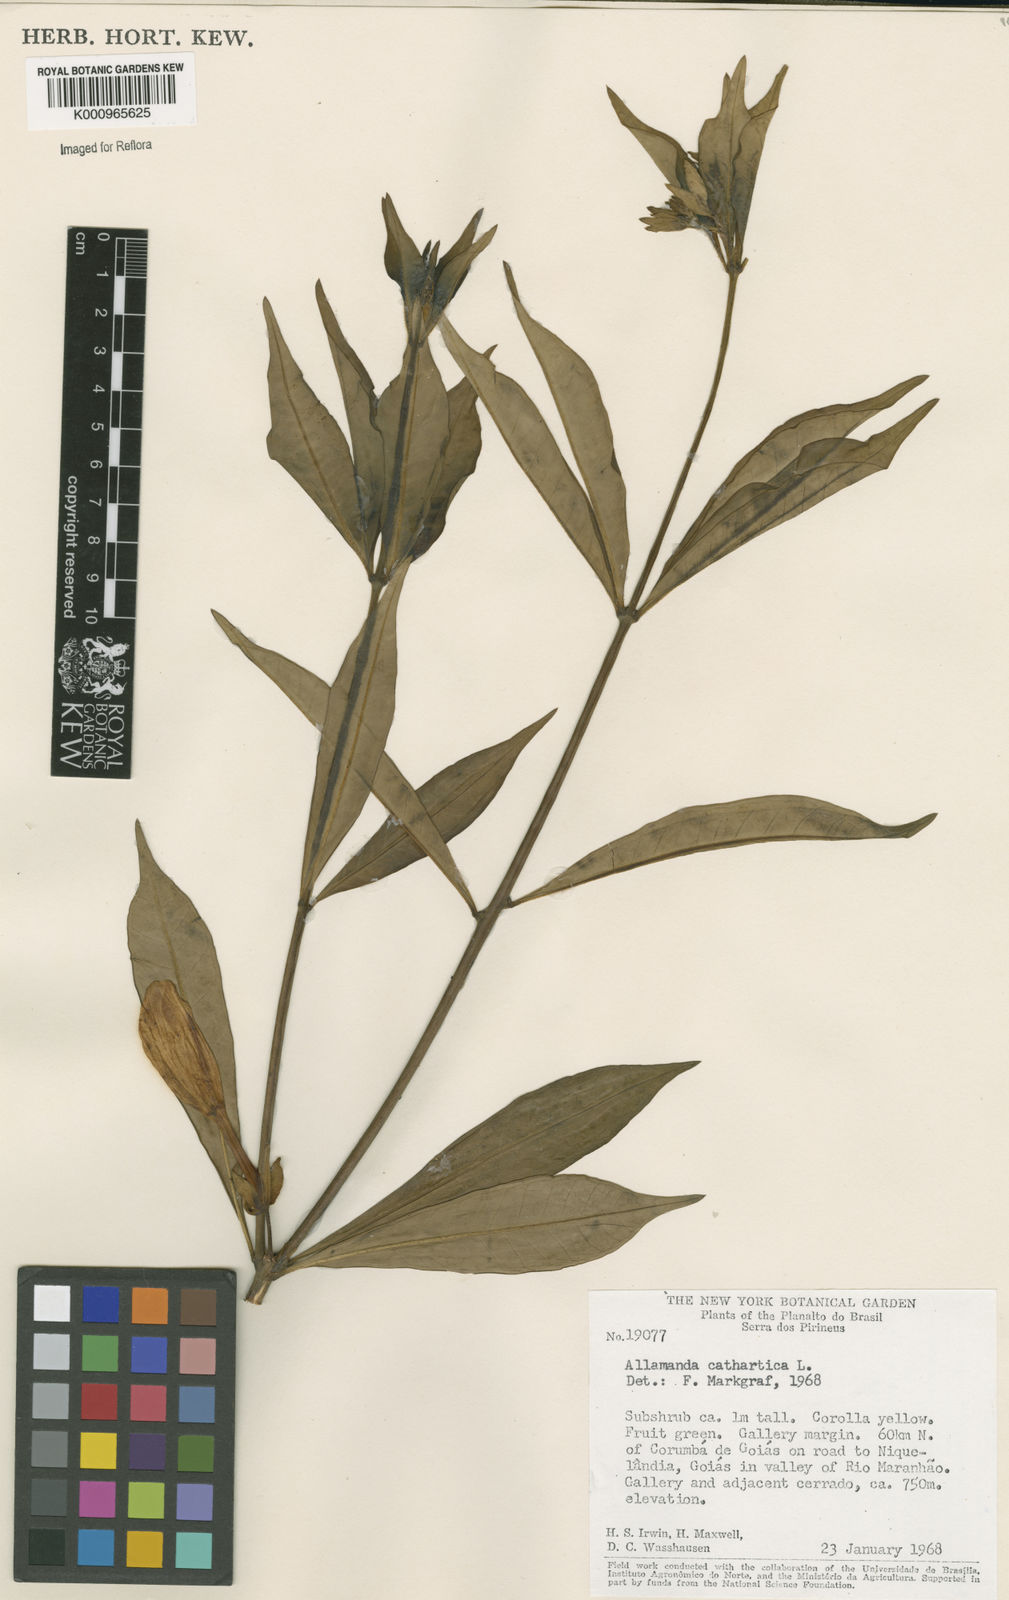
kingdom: Plantae
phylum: Tracheophyta
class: Magnoliopsida
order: Gentianales
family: Apocynaceae
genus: Allamanda
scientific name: Allamanda cathartica
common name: Golden trumpet
